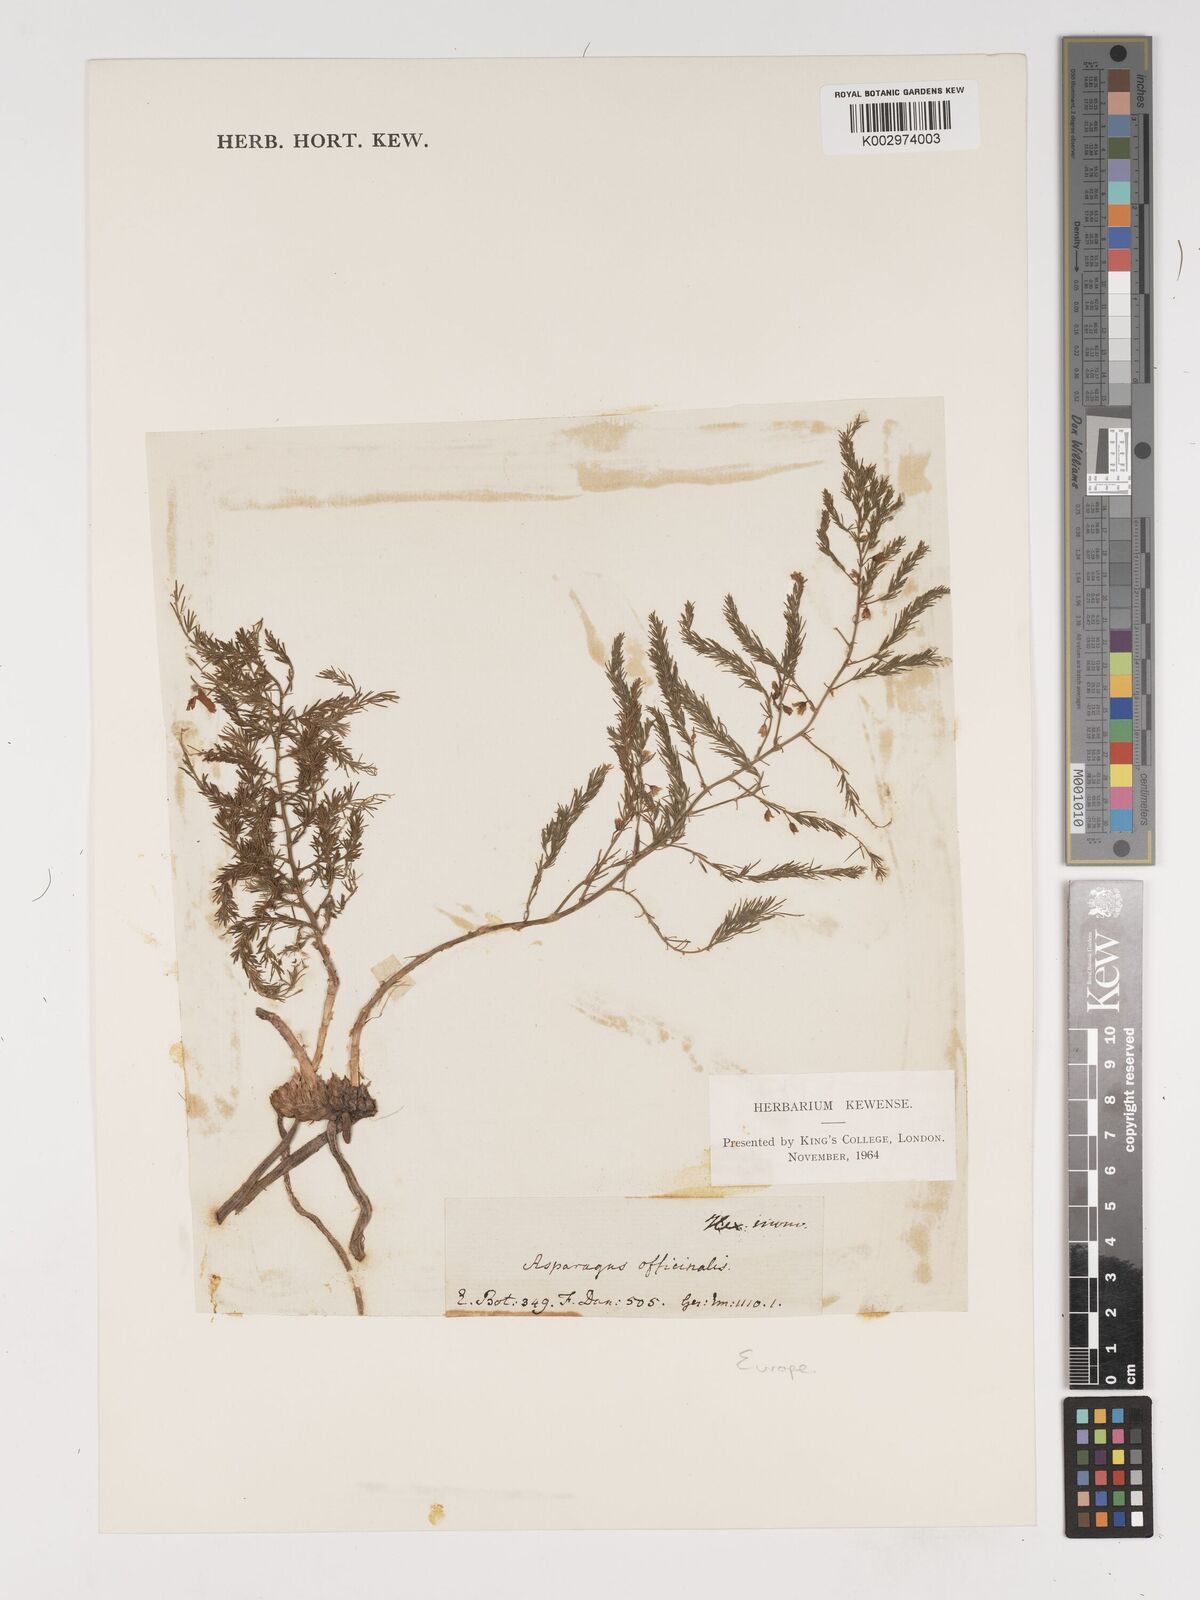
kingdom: Plantae
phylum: Tracheophyta
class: Liliopsida
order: Asparagales
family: Asparagaceae
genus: Asparagus
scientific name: Asparagus officinalis
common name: Garden asparagus
